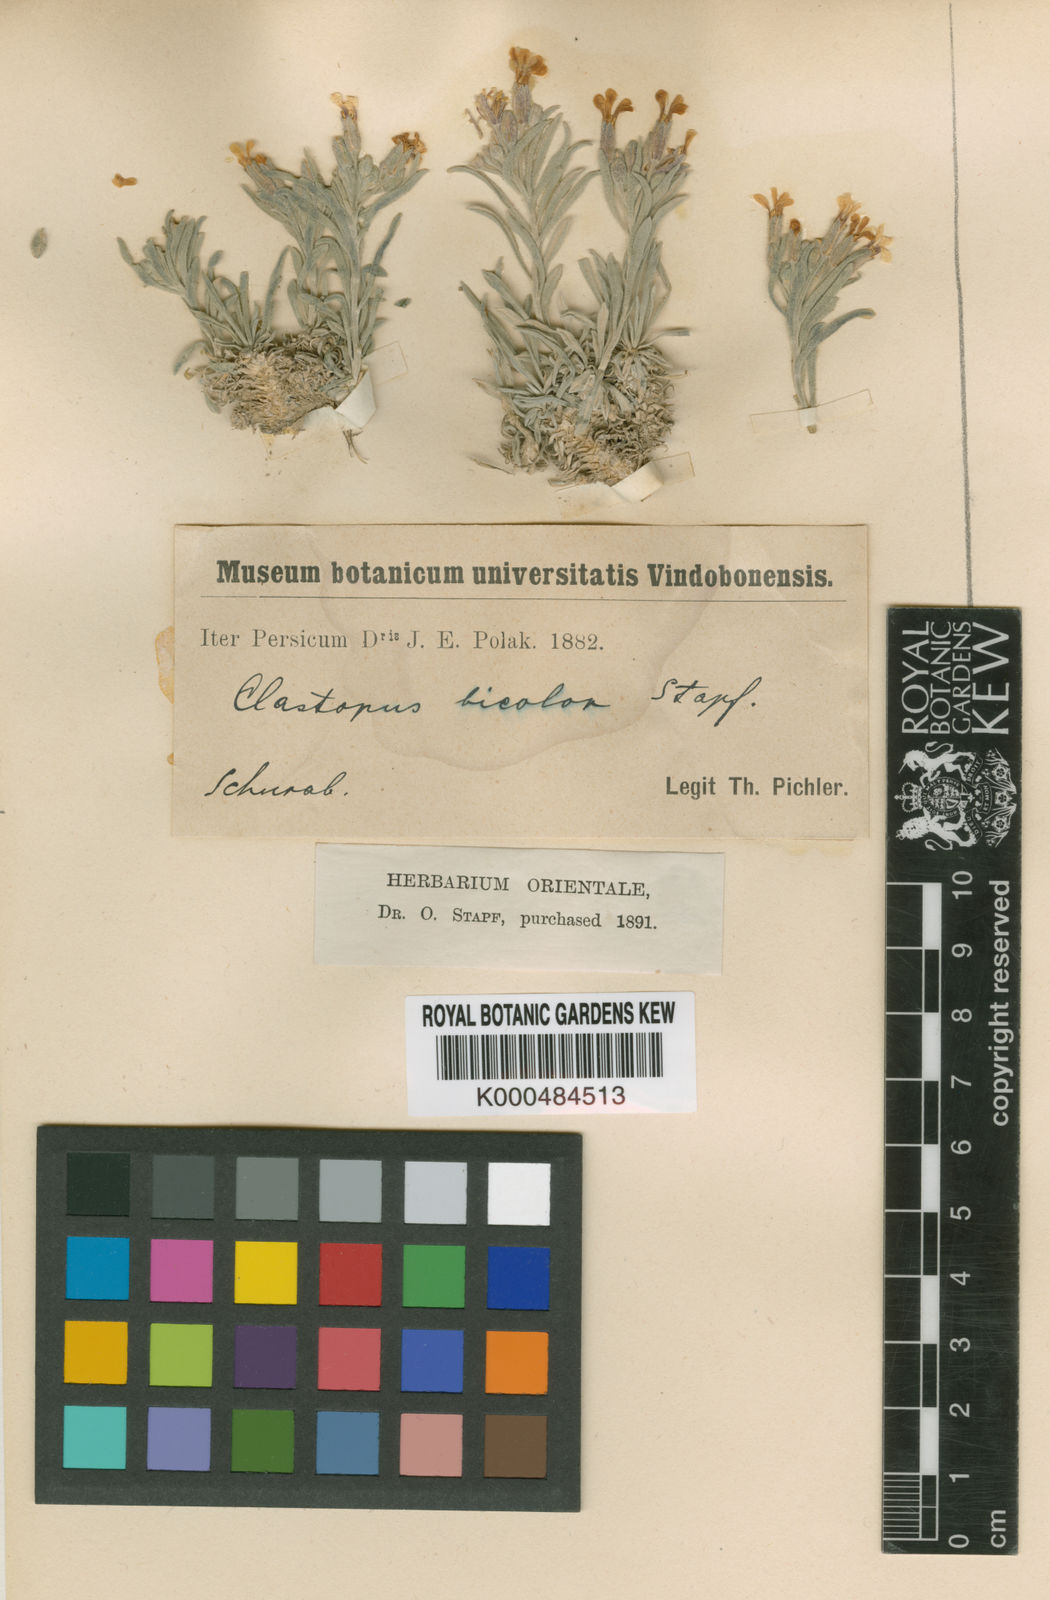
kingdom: Plantae
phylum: Tracheophyta
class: Magnoliopsida
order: Brassicales
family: Brassicaceae
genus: Clastopus
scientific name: Clastopus
